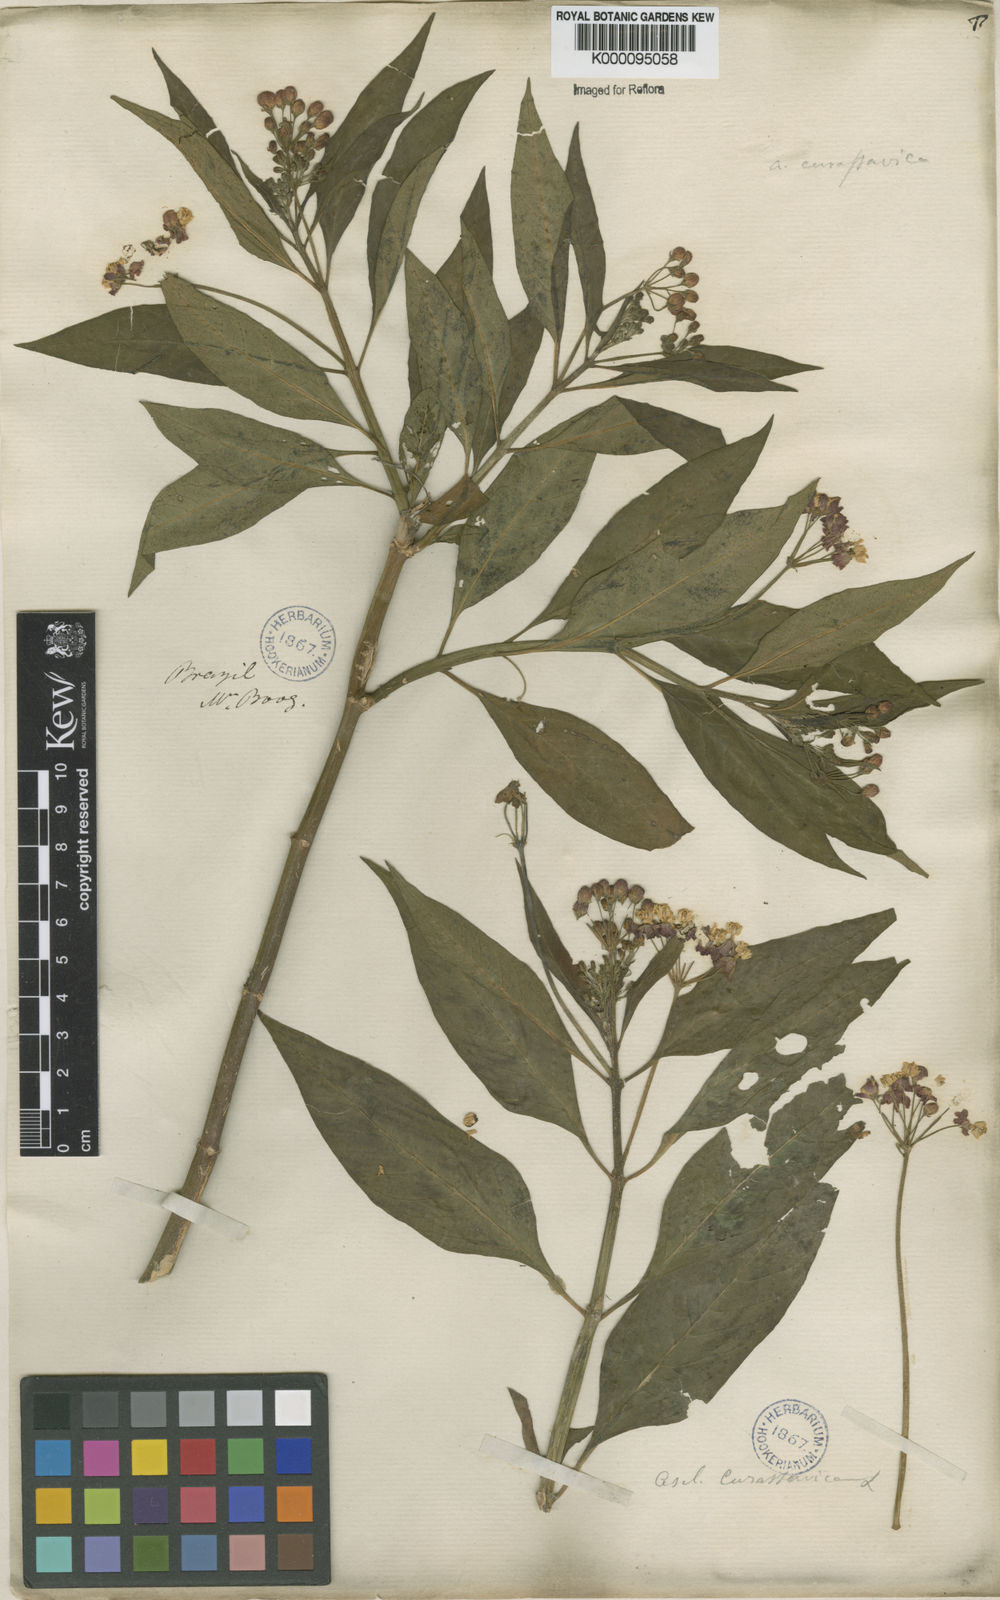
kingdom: Plantae
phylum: Tracheophyta
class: Magnoliopsida
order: Gentianales
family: Apocynaceae
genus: Asclepias
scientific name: Asclepias curassavica
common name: Bloodflower
